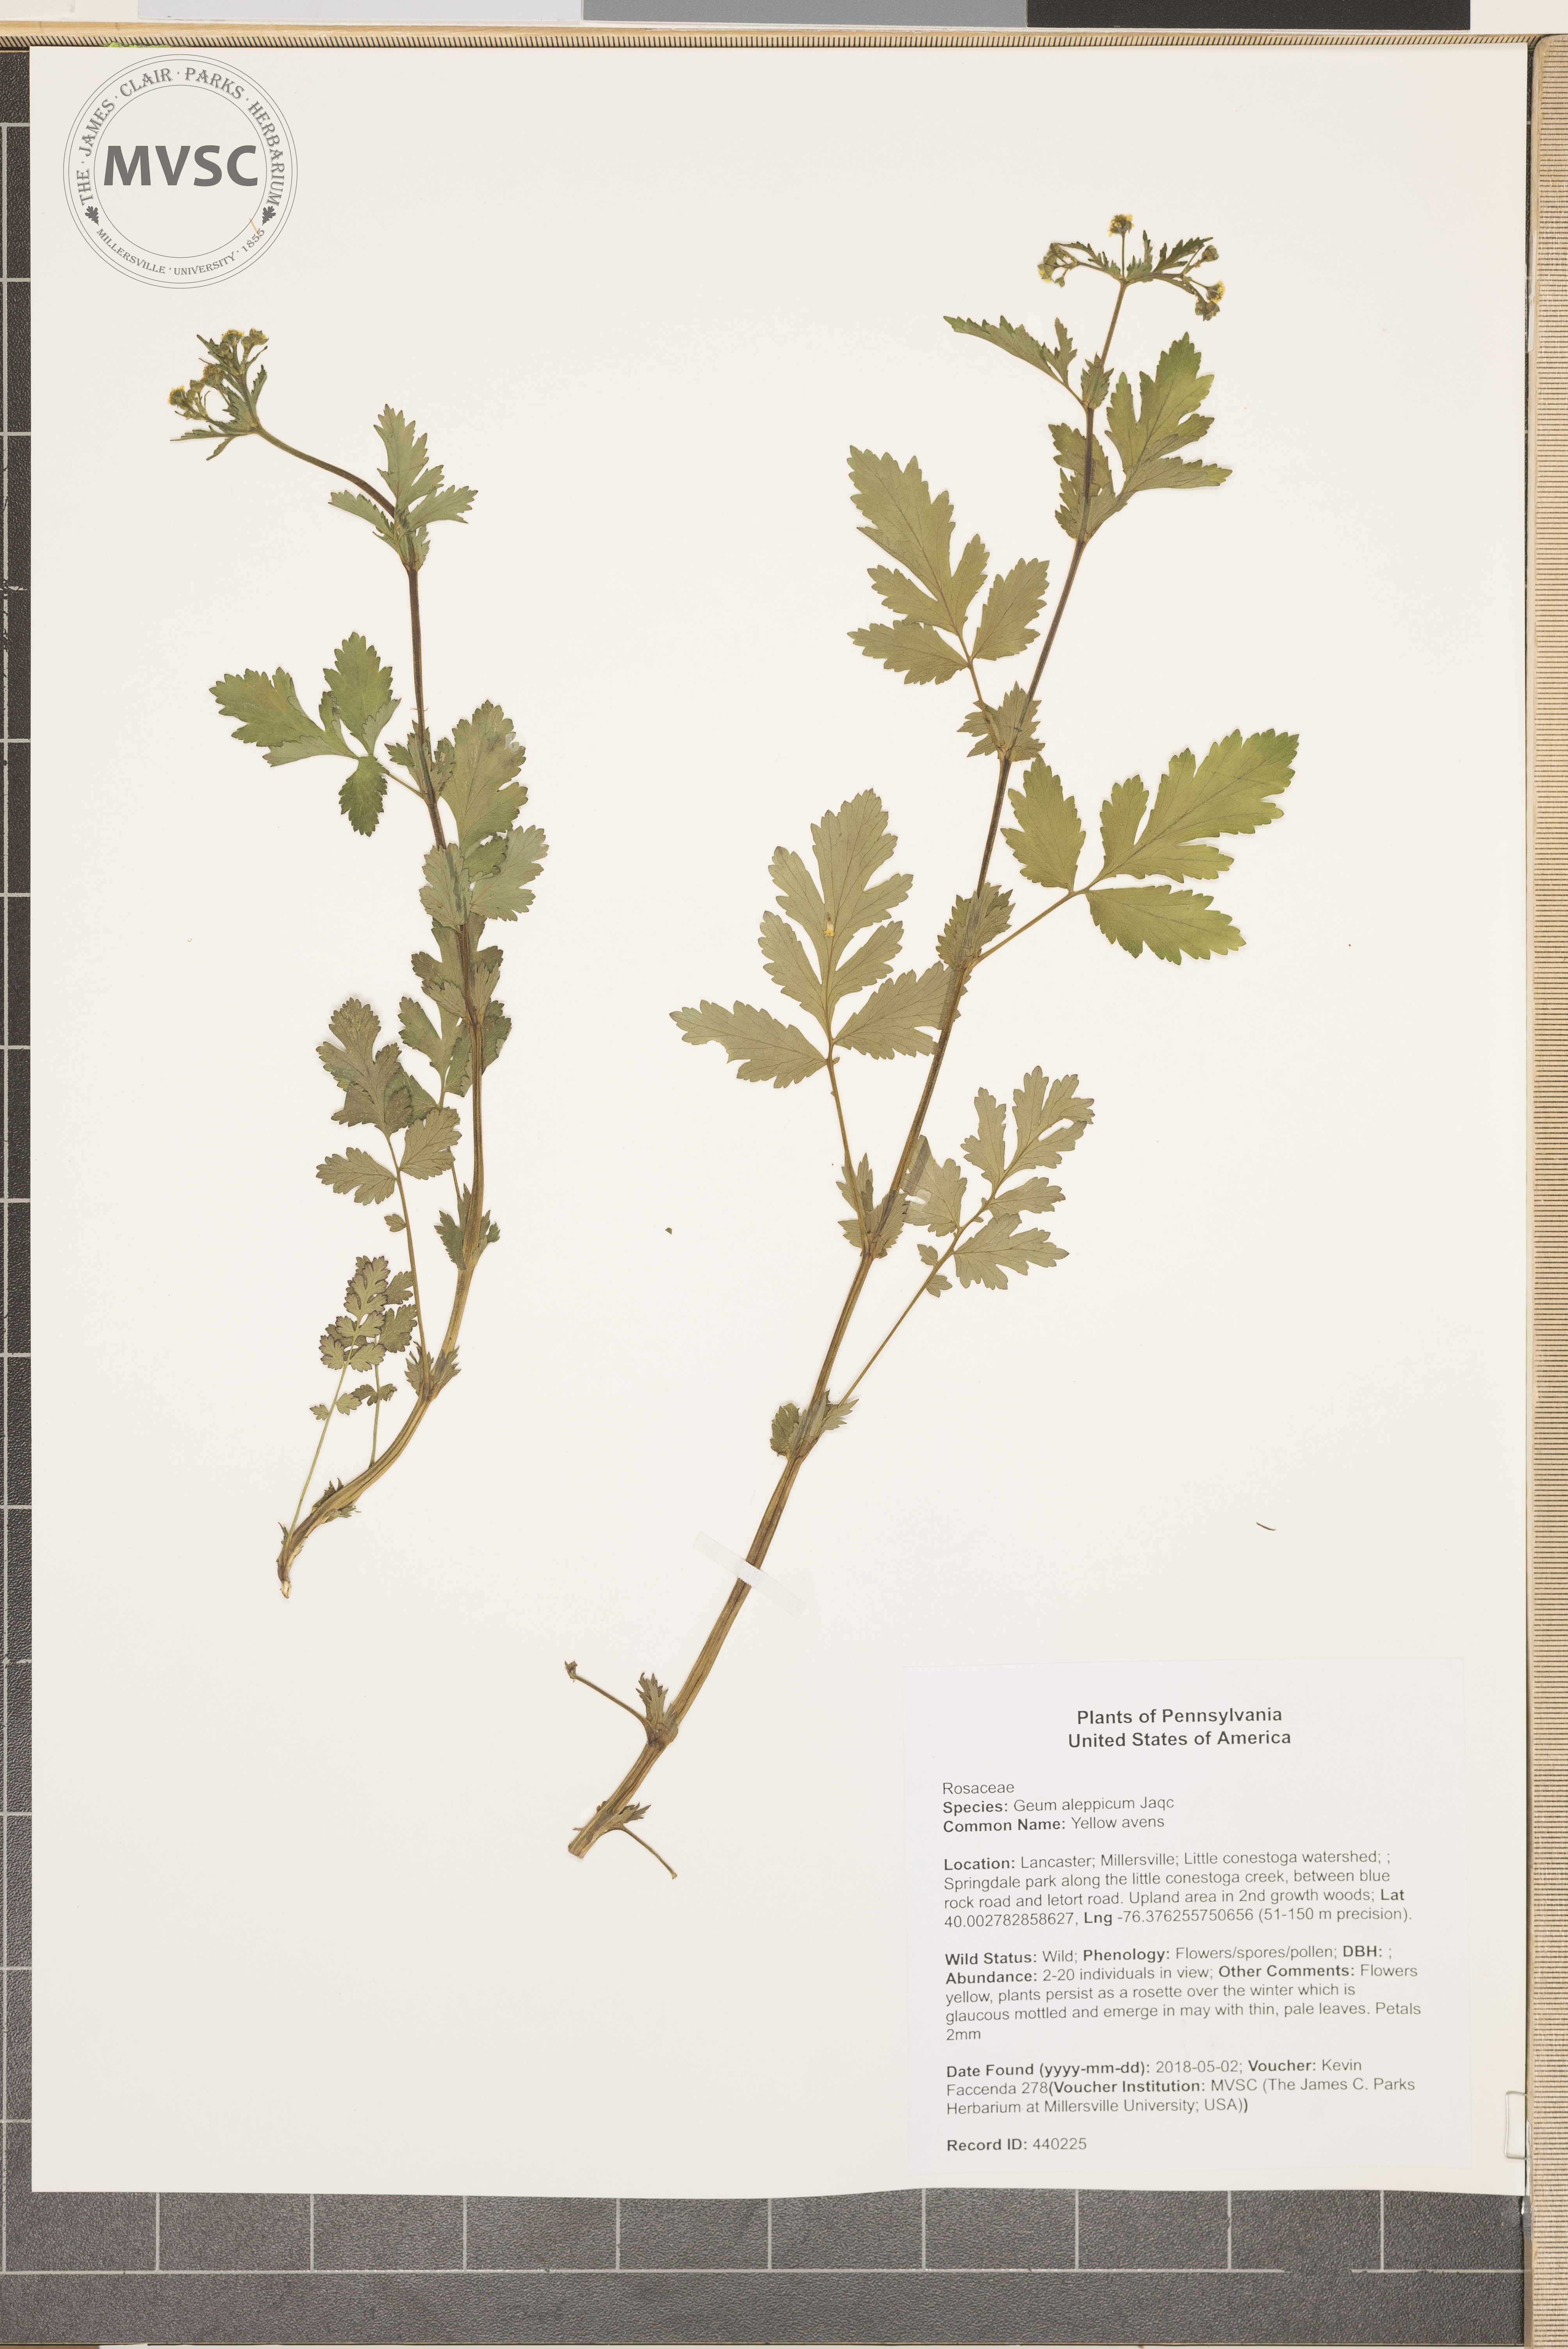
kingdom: Plantae
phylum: Tracheophyta
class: Magnoliopsida
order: Rosales
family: Rosaceae
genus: Geum
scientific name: Geum aleppicum
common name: Yellow avens
